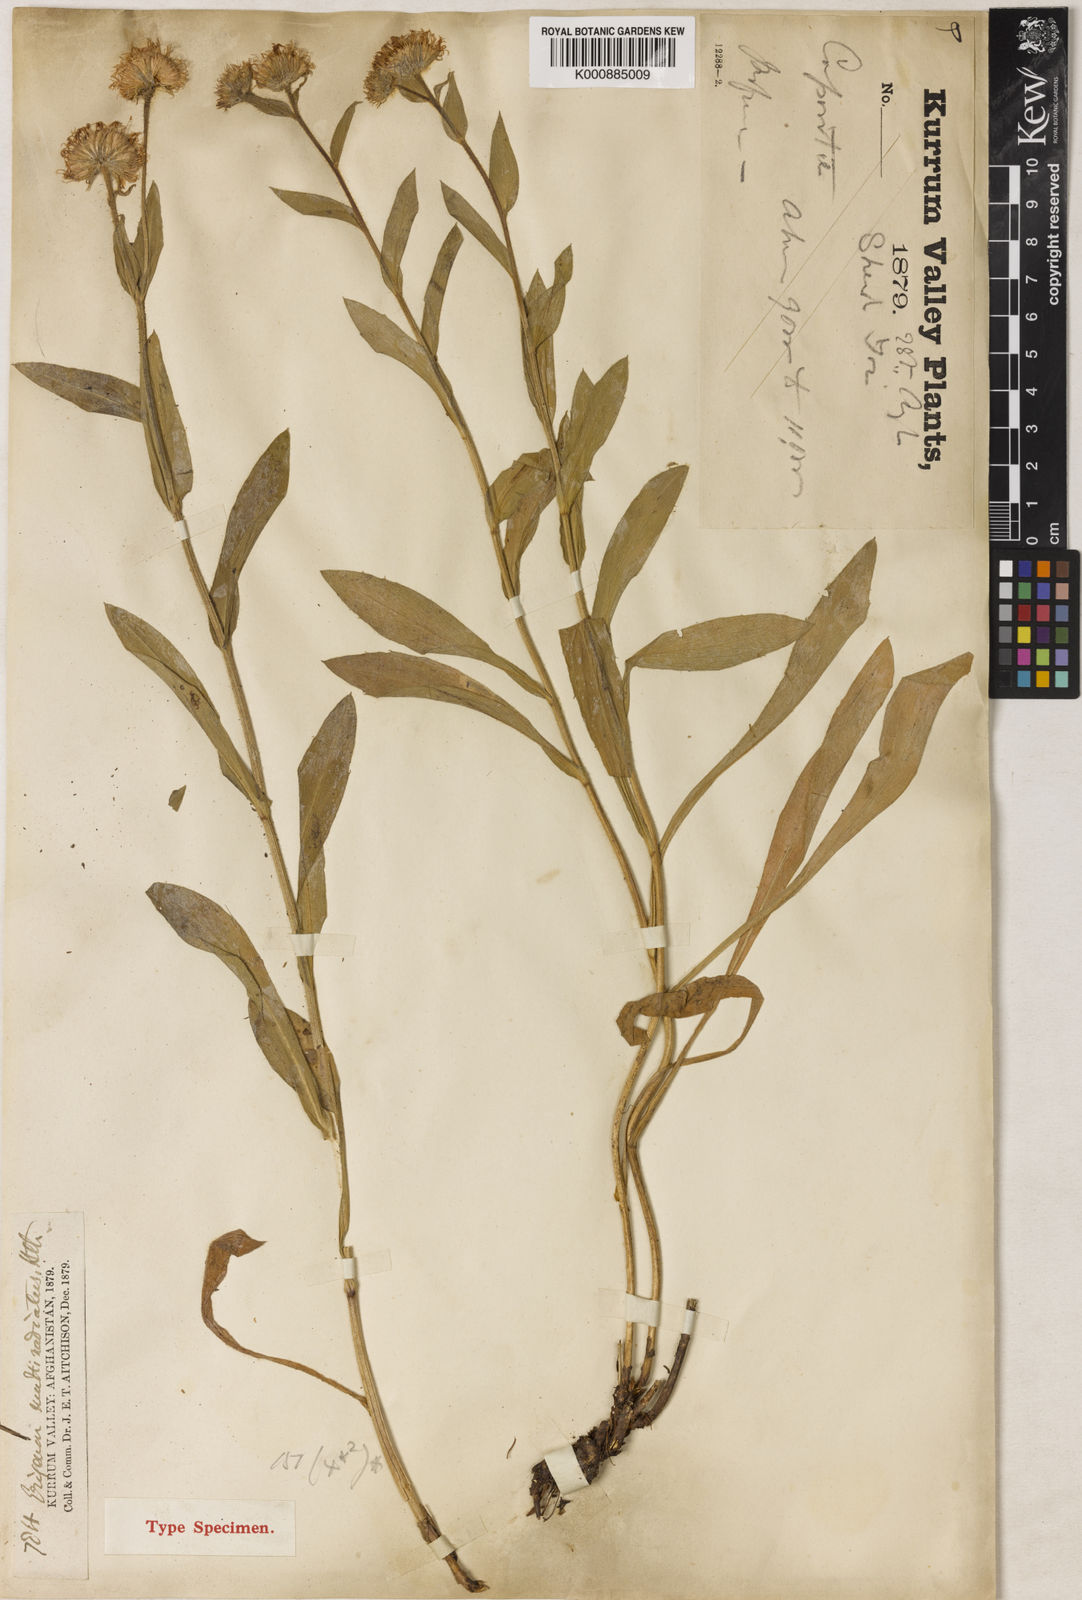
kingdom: Plantae
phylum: Tracheophyta
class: Magnoliopsida
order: Asterales
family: Asteraceae
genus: Erigeron
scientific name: Erigeron
